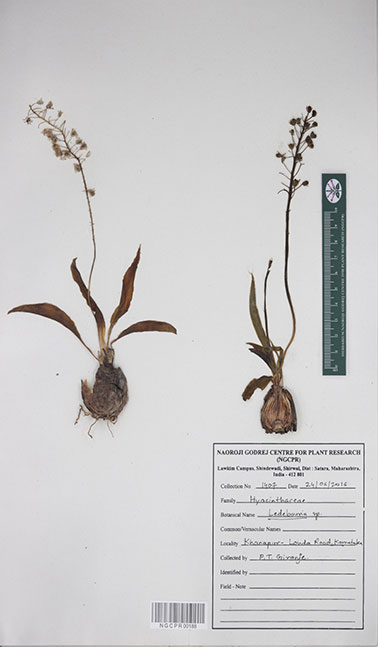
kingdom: Plantae
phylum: Tracheophyta
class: Liliopsida
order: Asparagales
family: Asparagaceae
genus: Ledebouria
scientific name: Ledebouria
